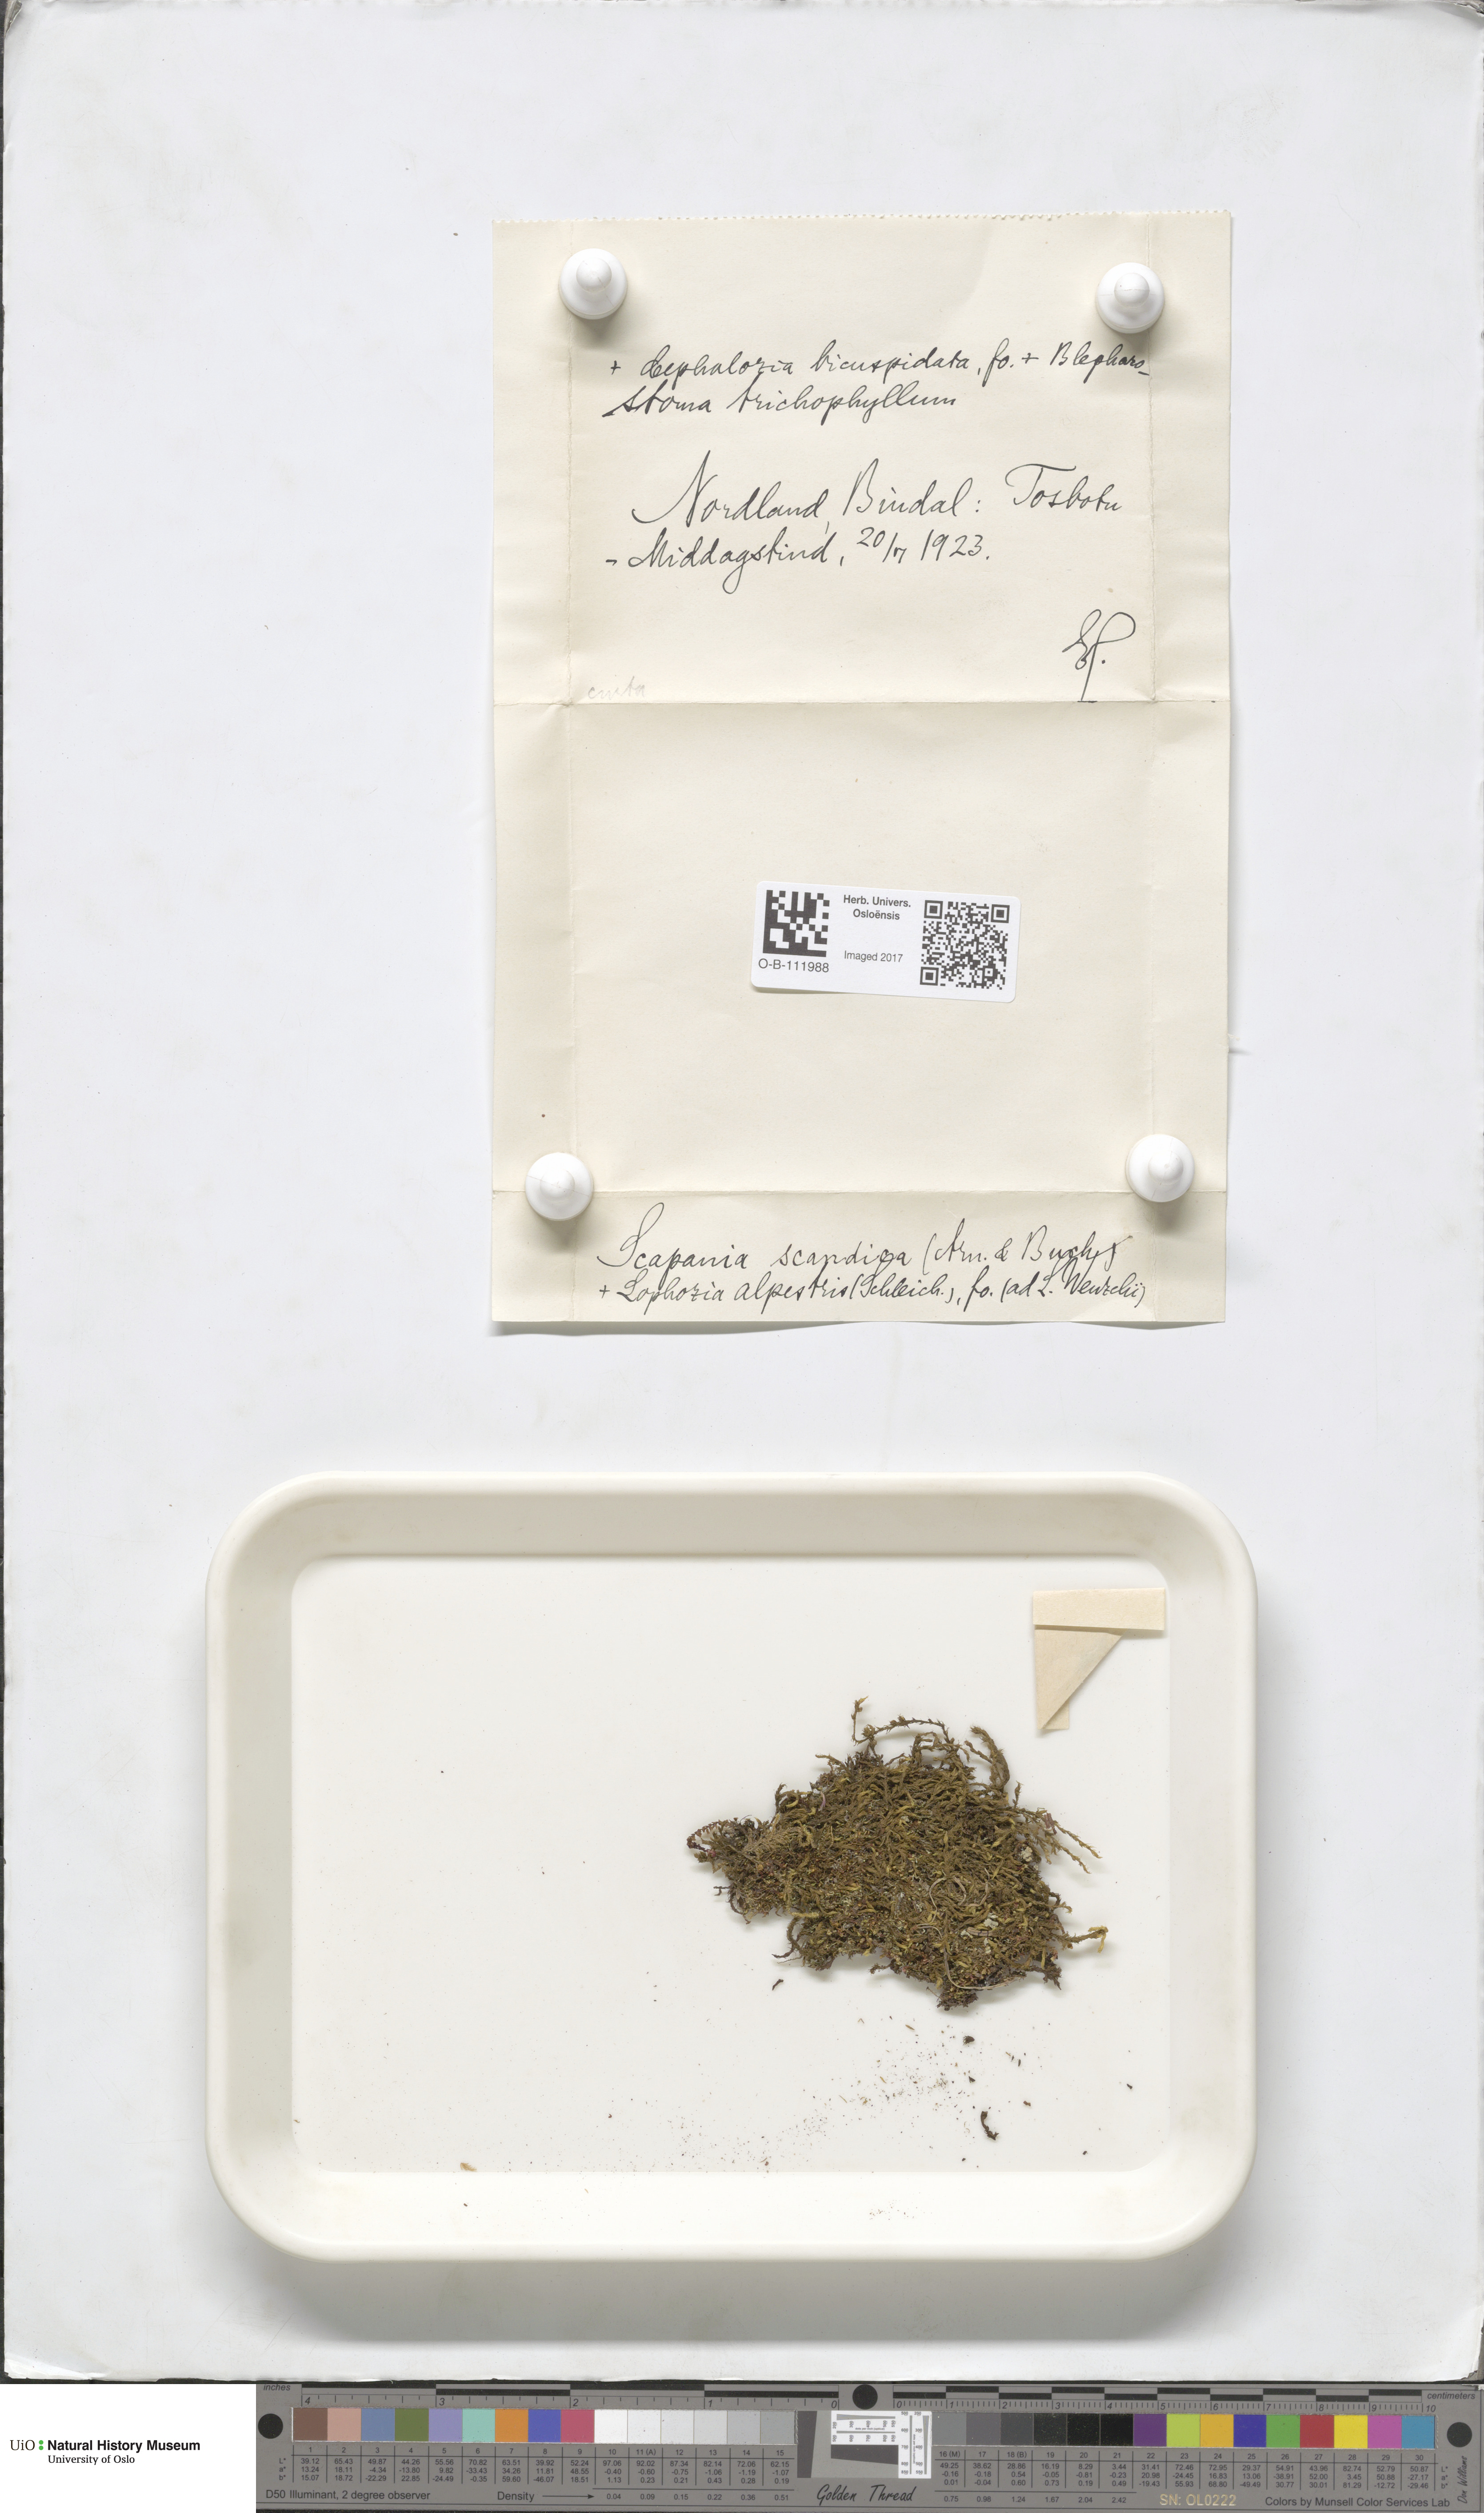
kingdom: Plantae
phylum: Marchantiophyta
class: Jungermanniopsida
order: Jungermanniales
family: Scapaniaceae
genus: Scapania
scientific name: Scapania scandica
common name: Norwegian earwort
